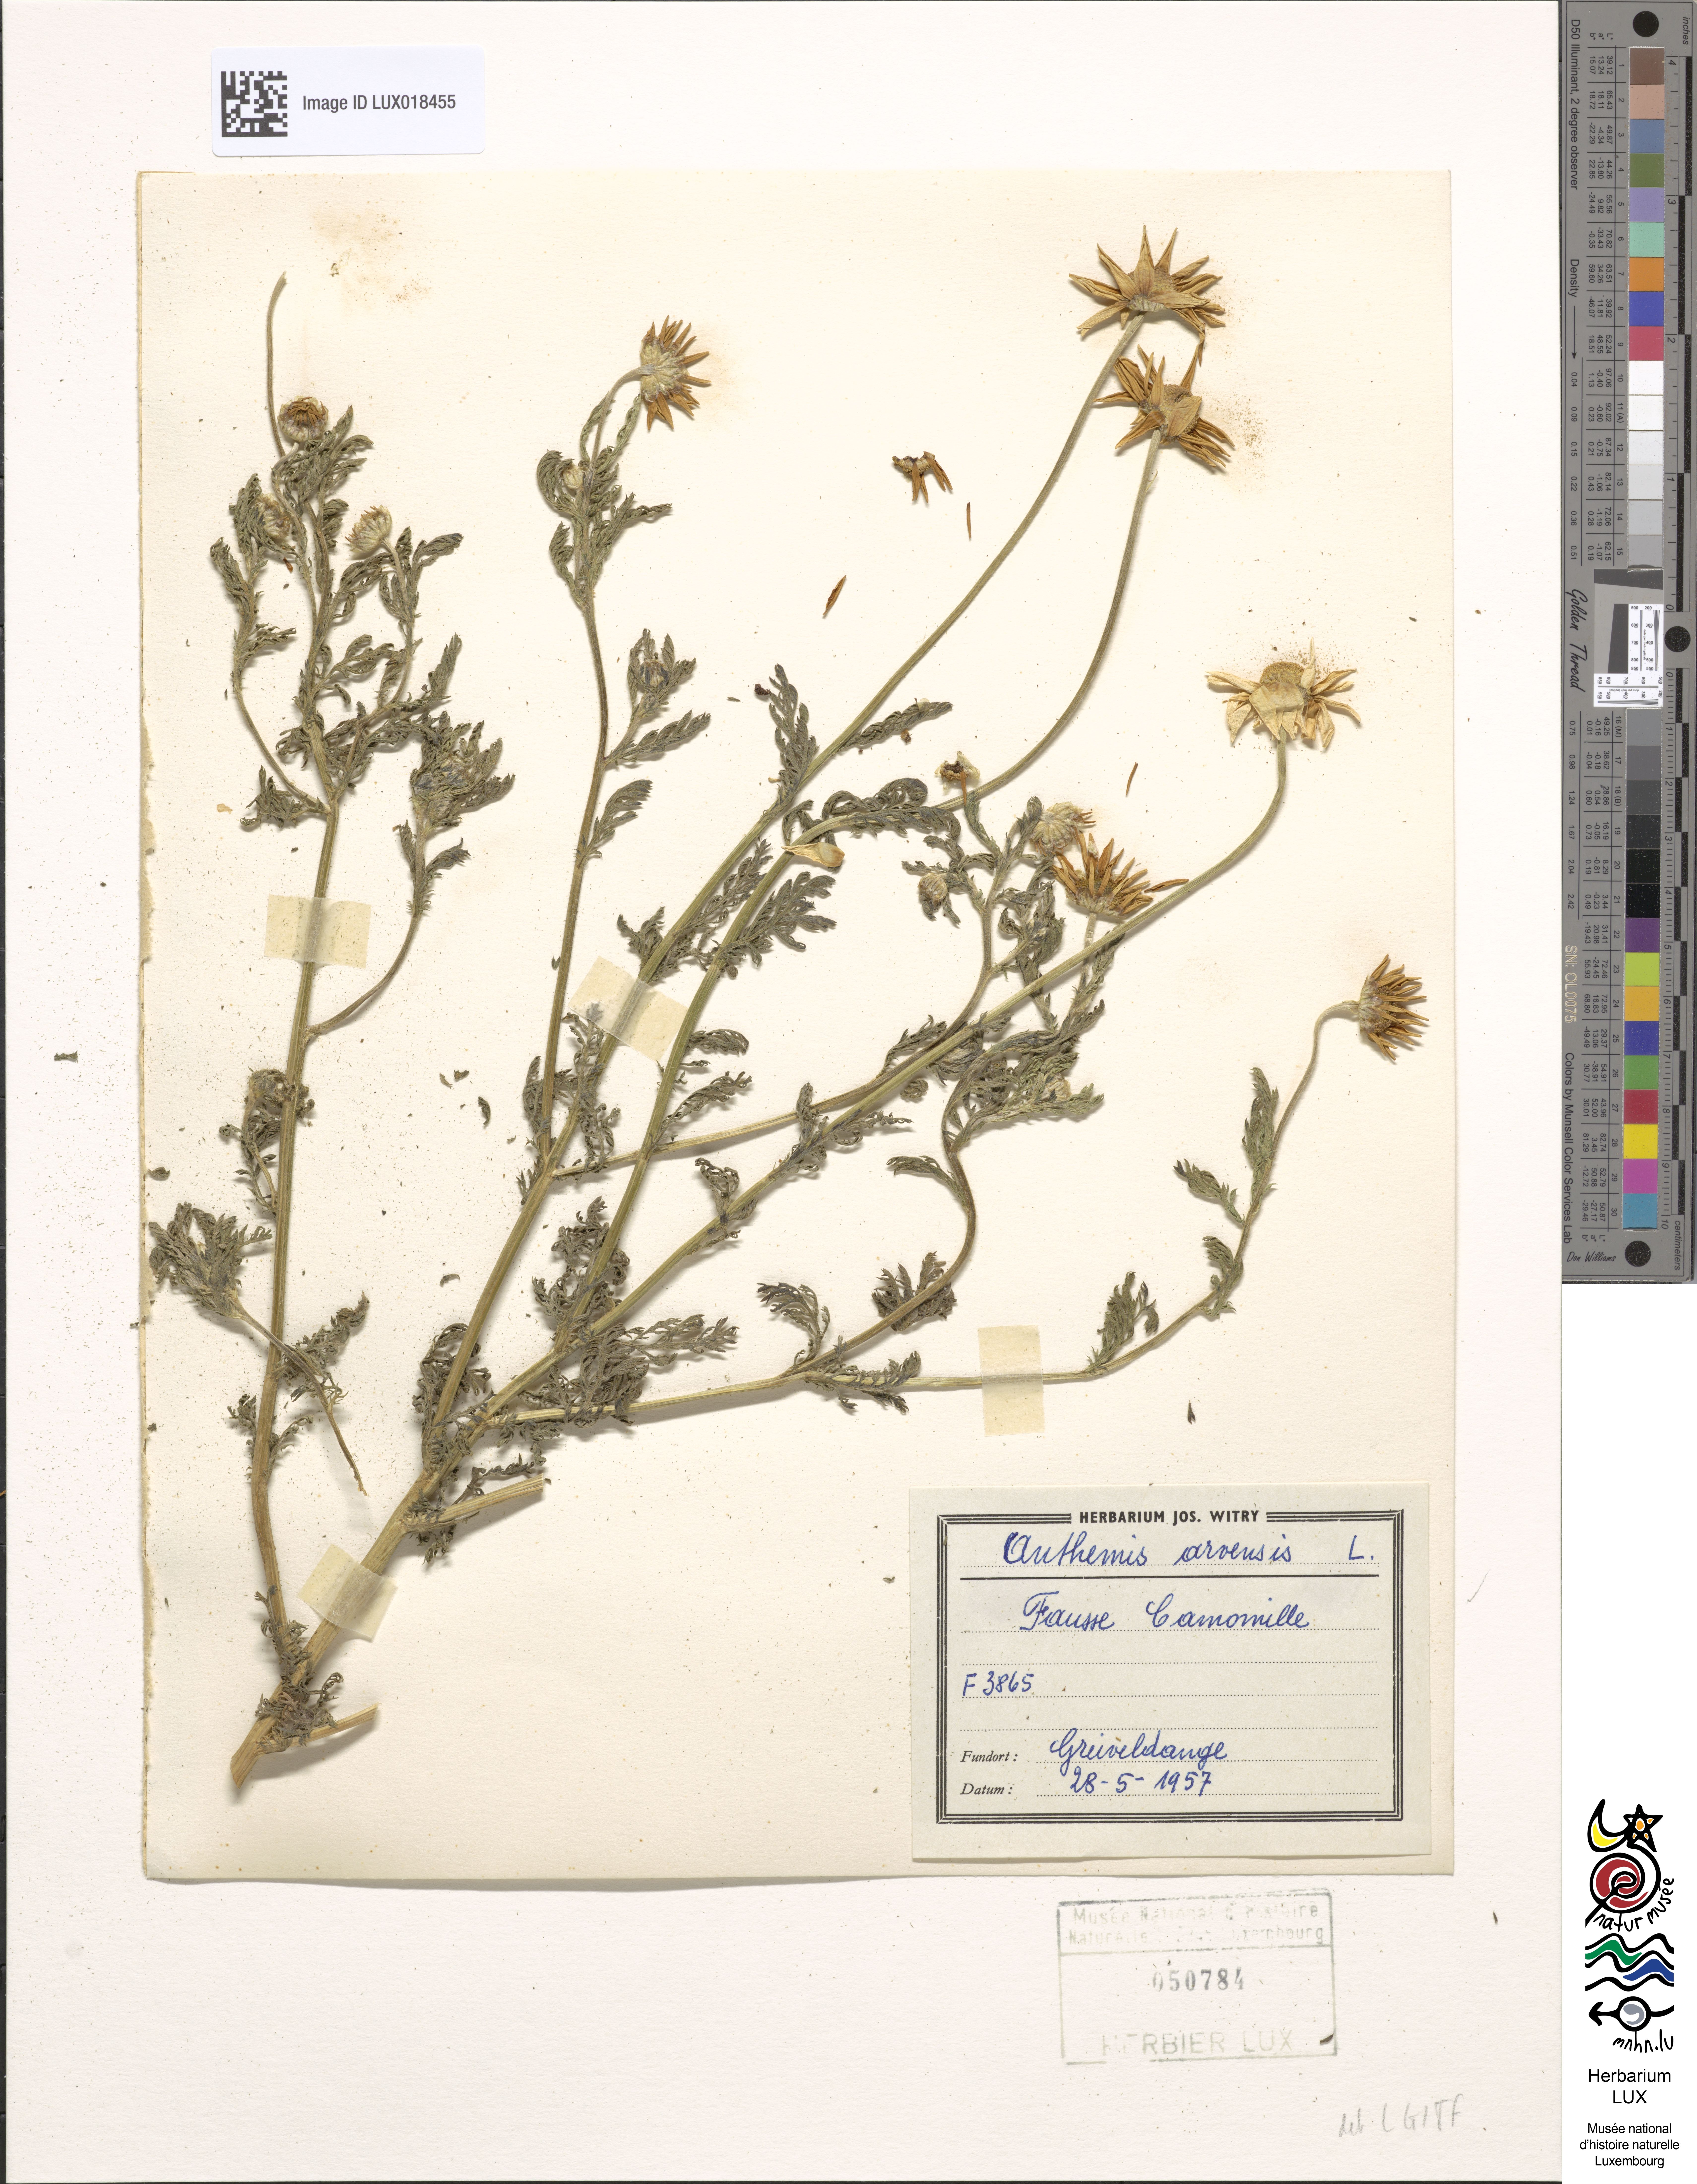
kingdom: Plantae
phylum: Tracheophyta
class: Magnoliopsida
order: Asterales
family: Asteraceae
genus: Anthemis
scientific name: Anthemis arvensis
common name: Corn chamomile
